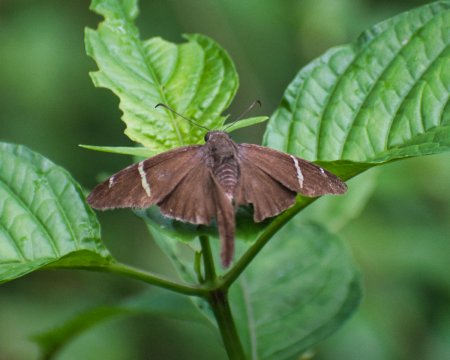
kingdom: Animalia
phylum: Arthropoda
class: Insecta
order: Lepidoptera
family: Hesperiidae
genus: Urbanus
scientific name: Urbanus tanna
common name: Tanna Longtail
